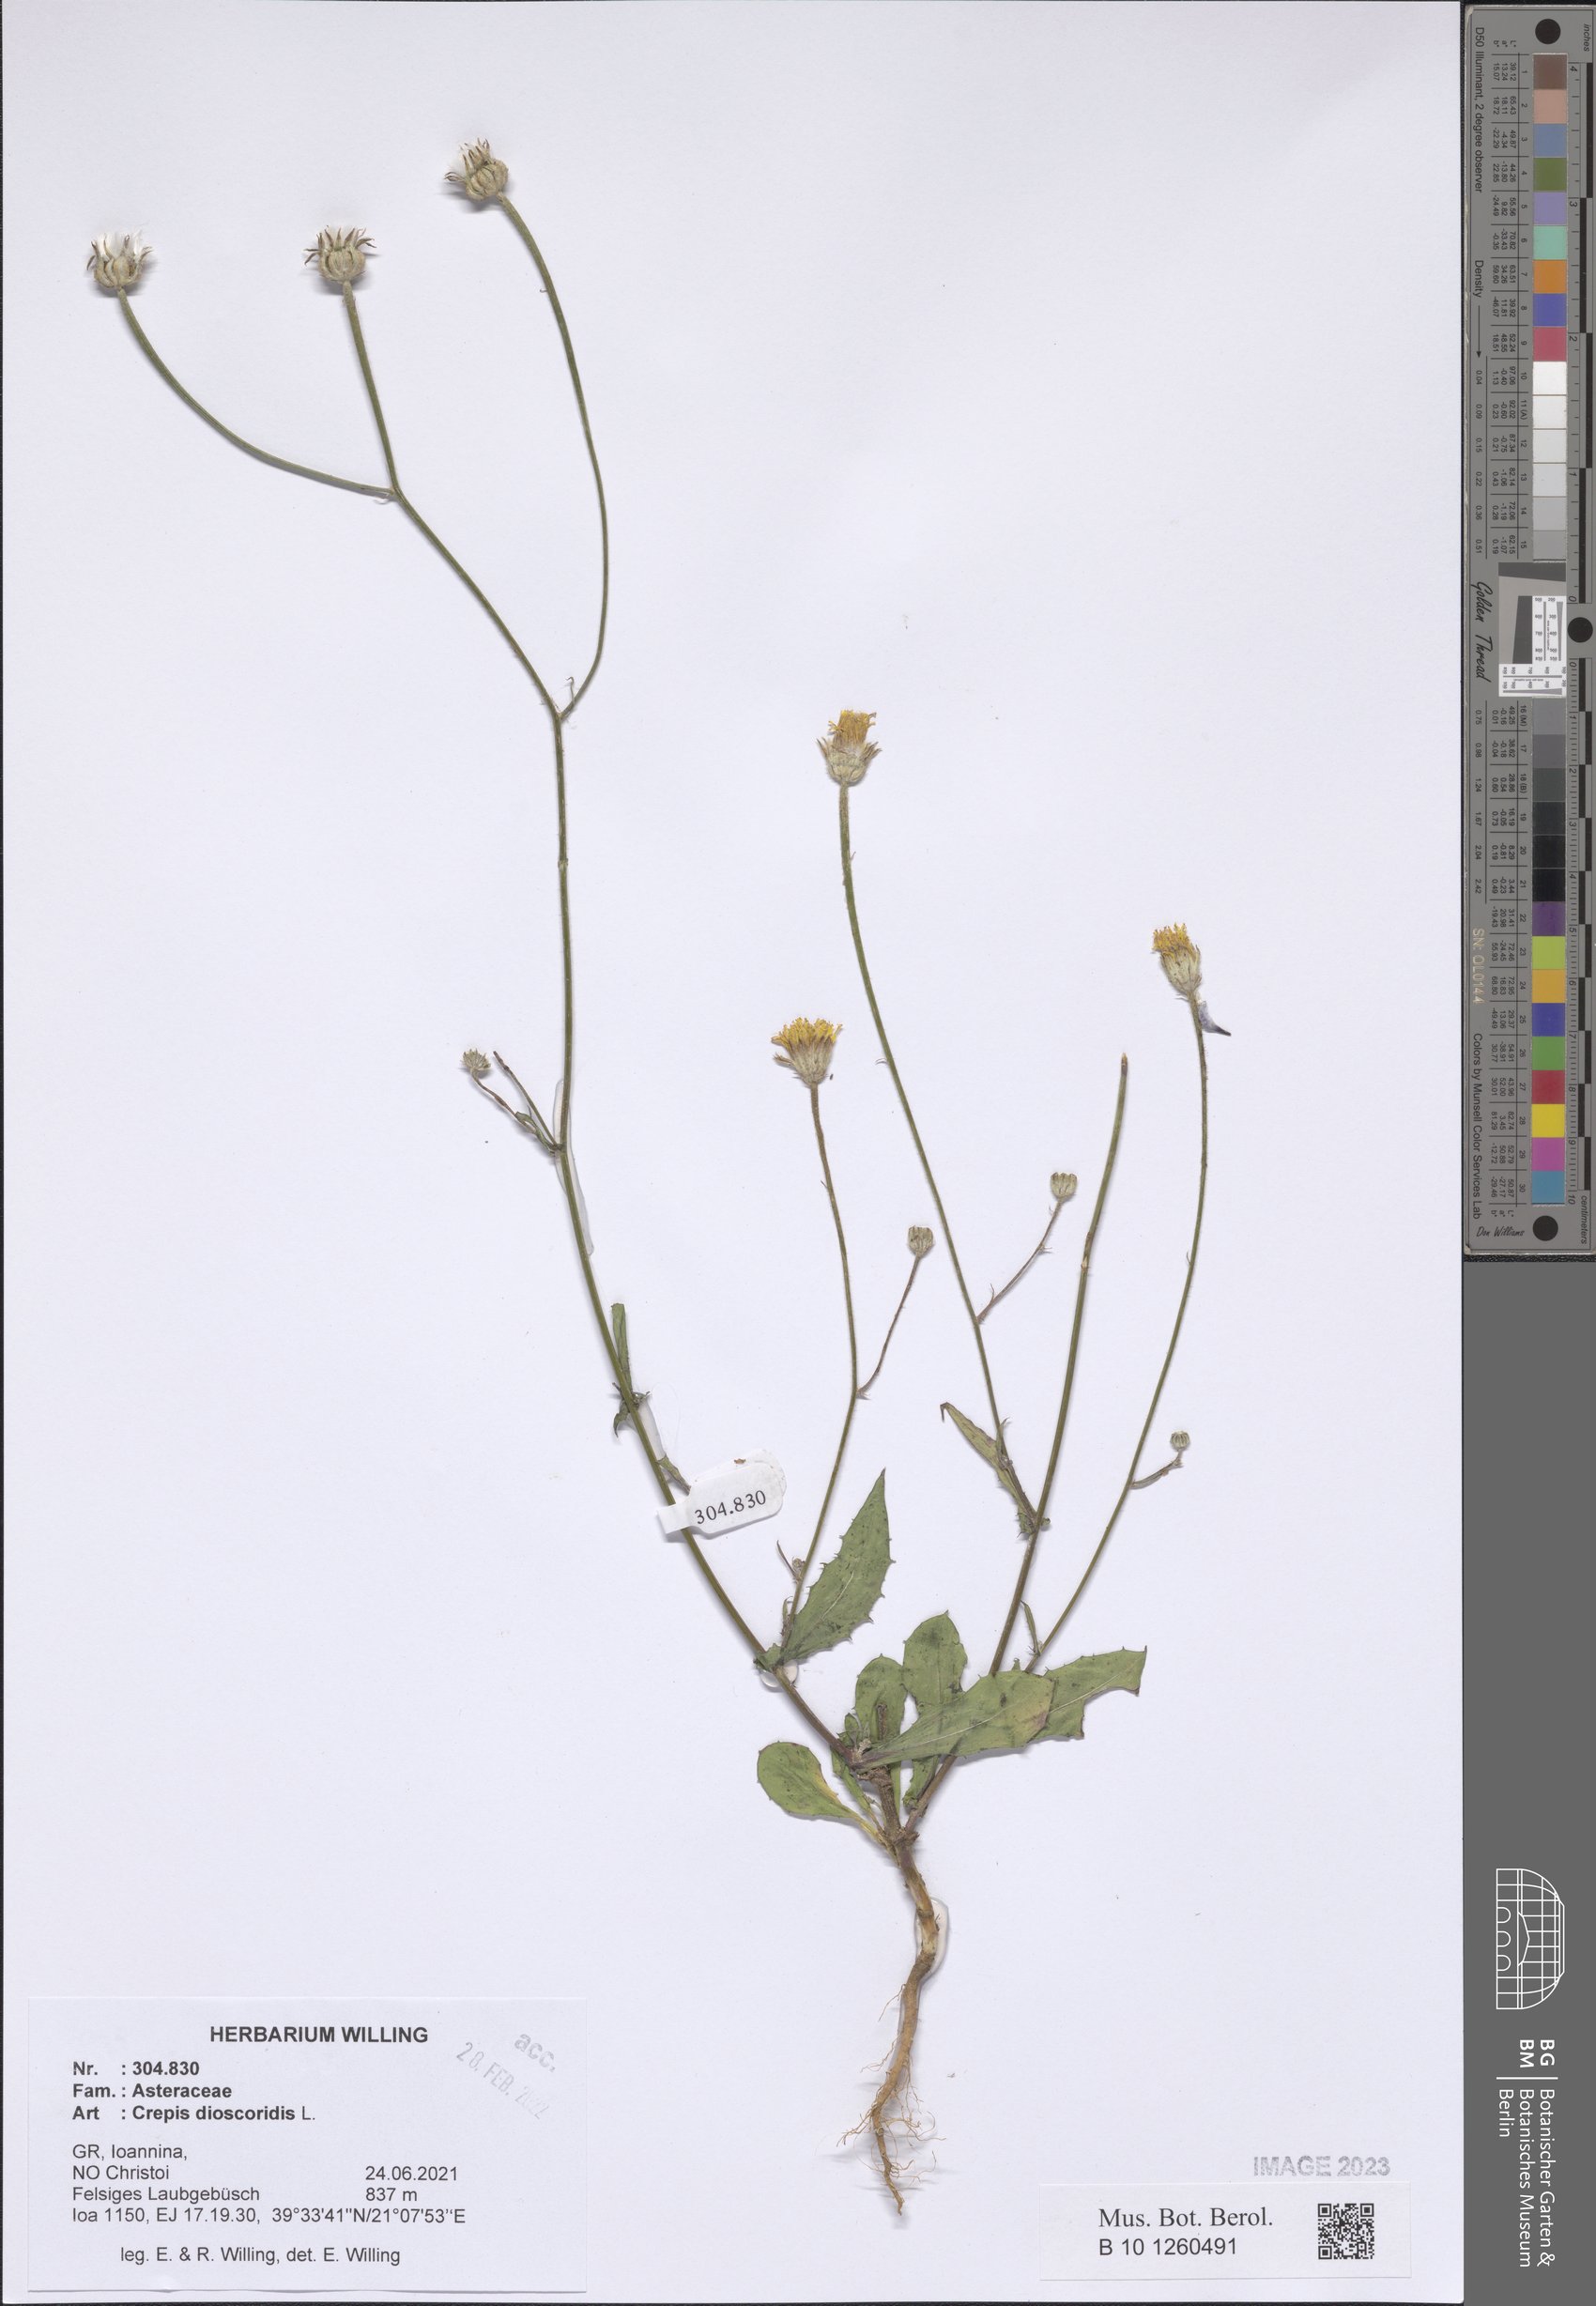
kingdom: Plantae
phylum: Tracheophyta
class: Magnoliopsida
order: Asterales
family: Asteraceae
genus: Crepis
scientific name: Crepis dioscoridis
